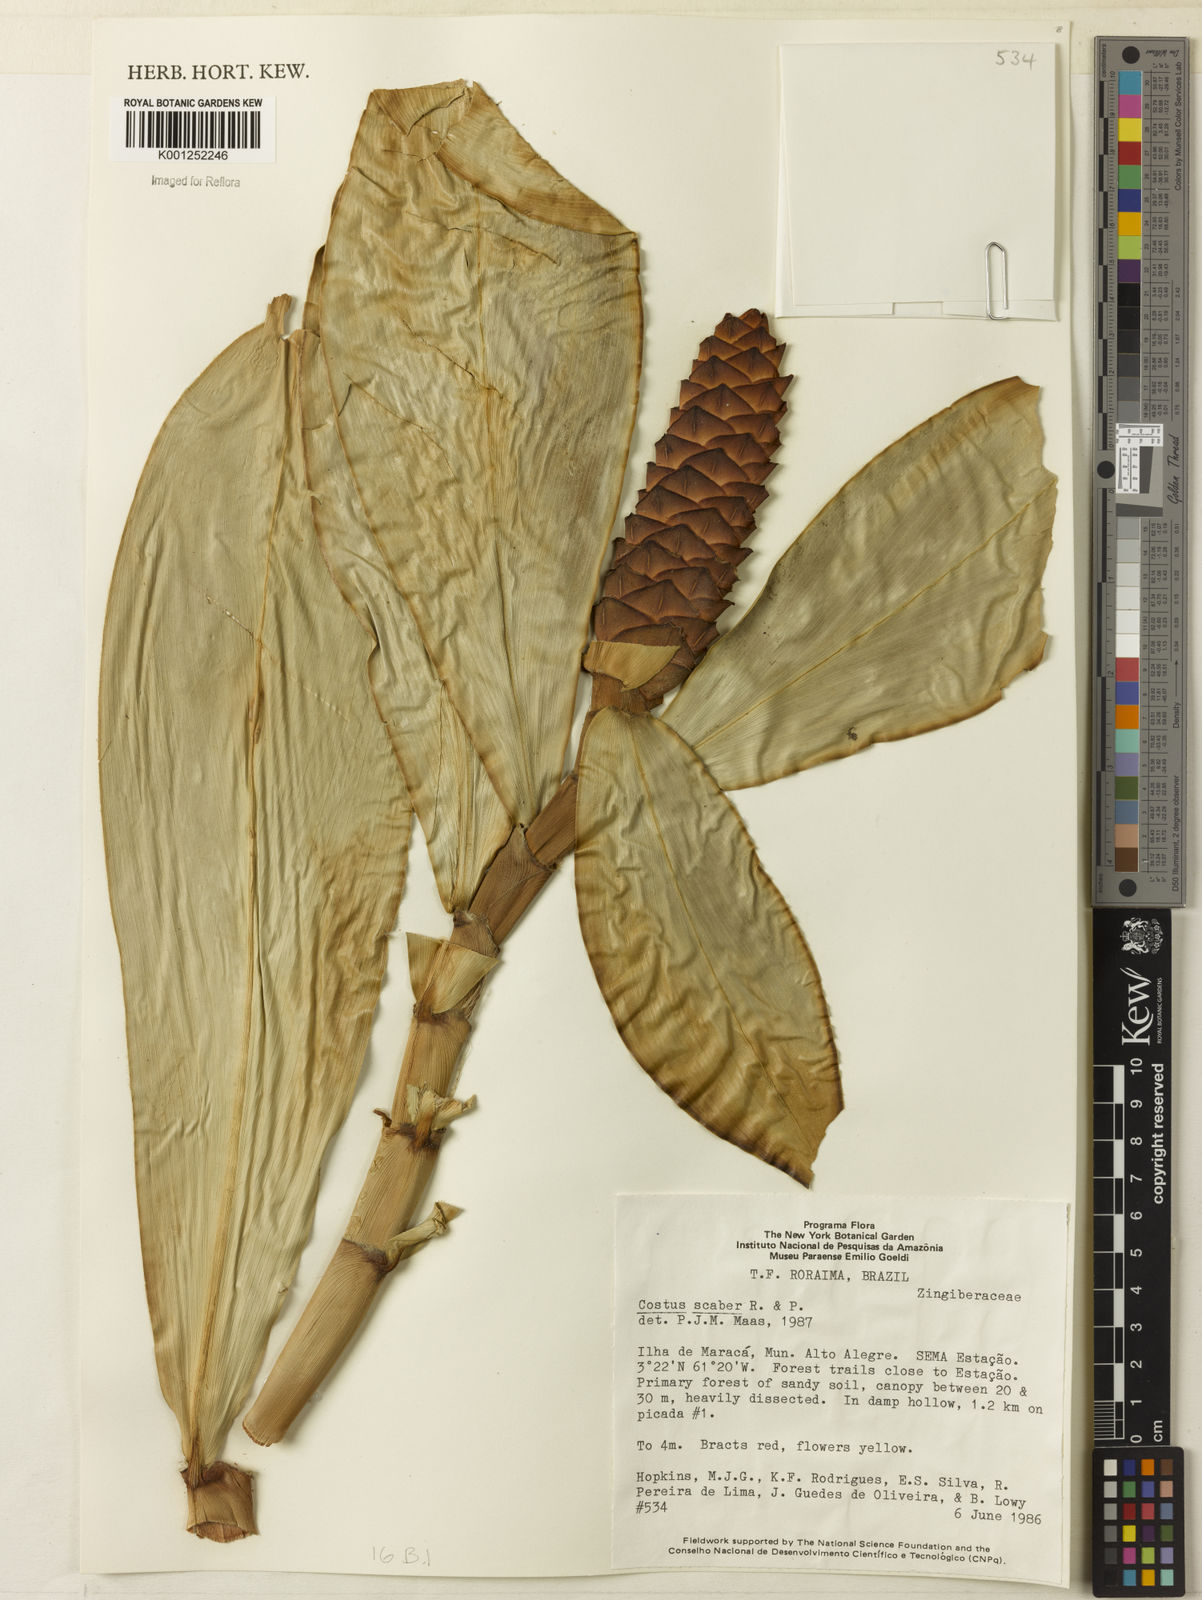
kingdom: Plantae
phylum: Tracheophyta
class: Liliopsida
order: Zingiberales
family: Costaceae
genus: Costus
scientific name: Costus scaber
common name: Spiral head ginger
